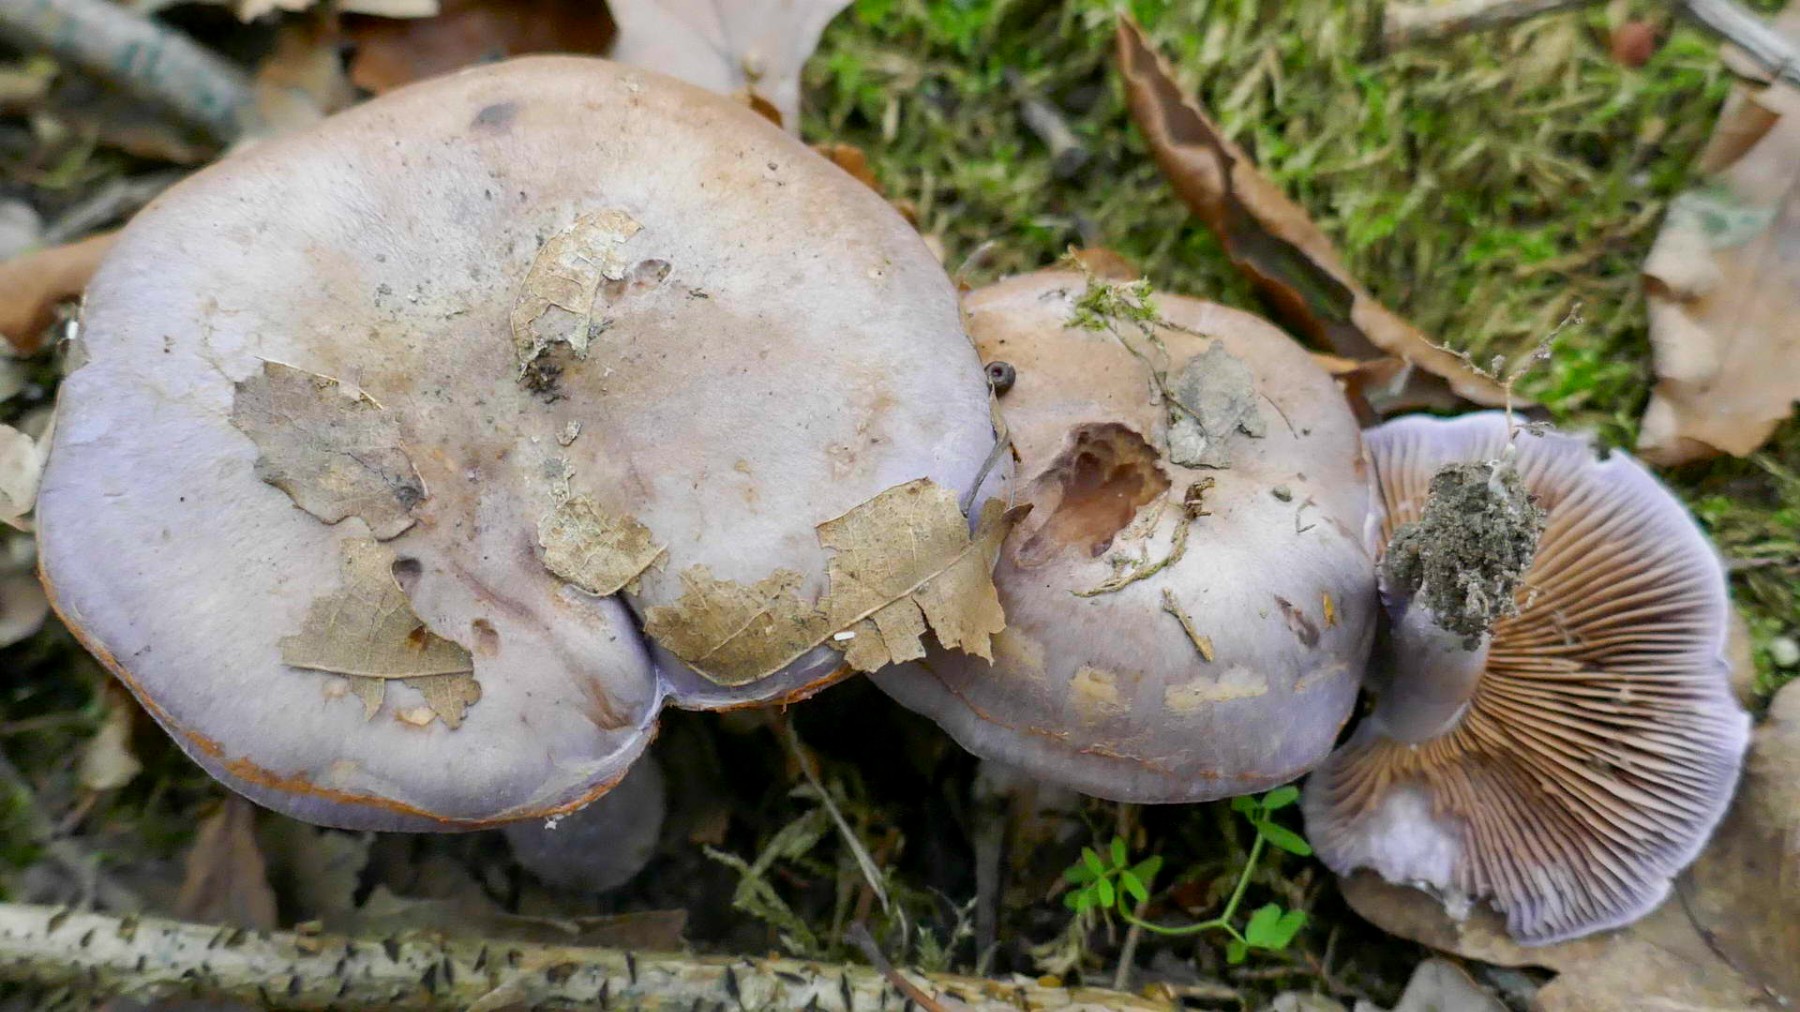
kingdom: Fungi
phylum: Basidiomycota
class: Agaricomycetes
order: Agaricales
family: Cortinariaceae
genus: Cortinarius
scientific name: Cortinarius largus
